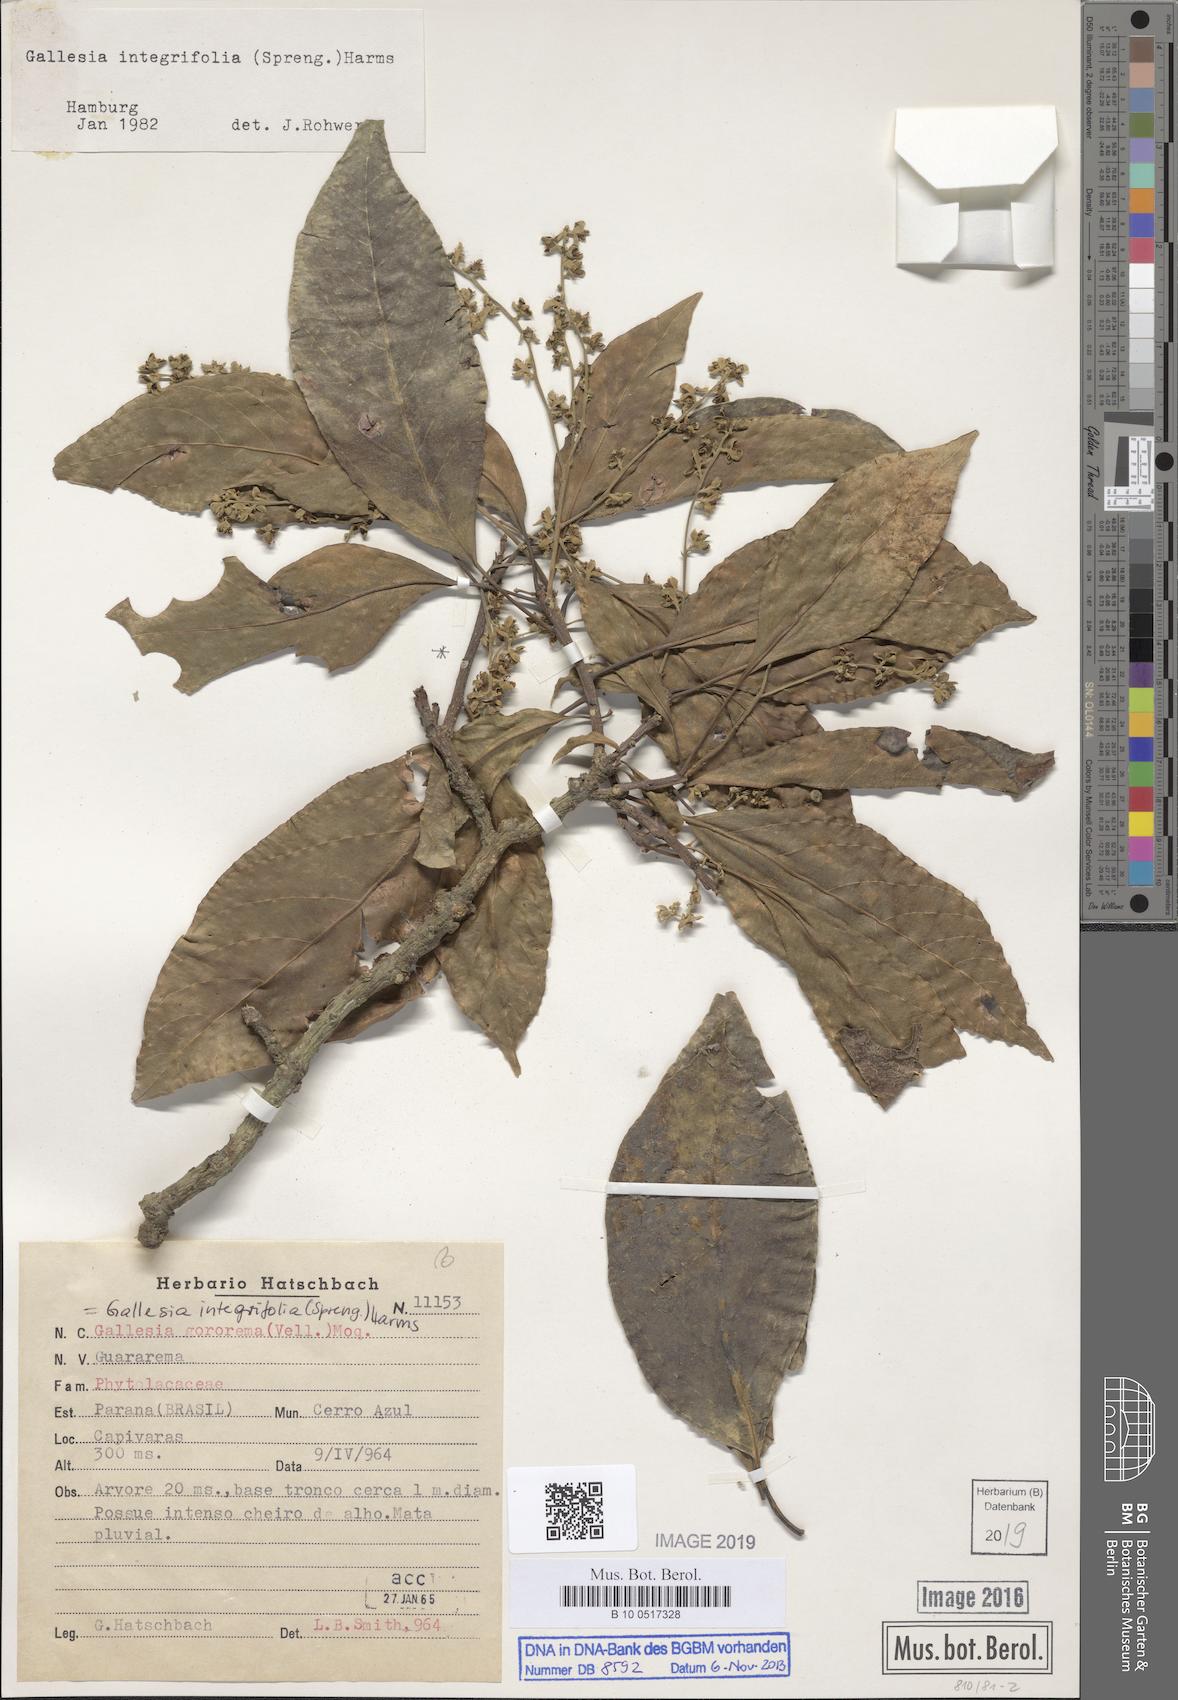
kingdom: Plantae
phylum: Tracheophyta
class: Magnoliopsida
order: Caryophyllales
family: Phytolaccaceae
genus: Gallesia
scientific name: Gallesia integrifolia
